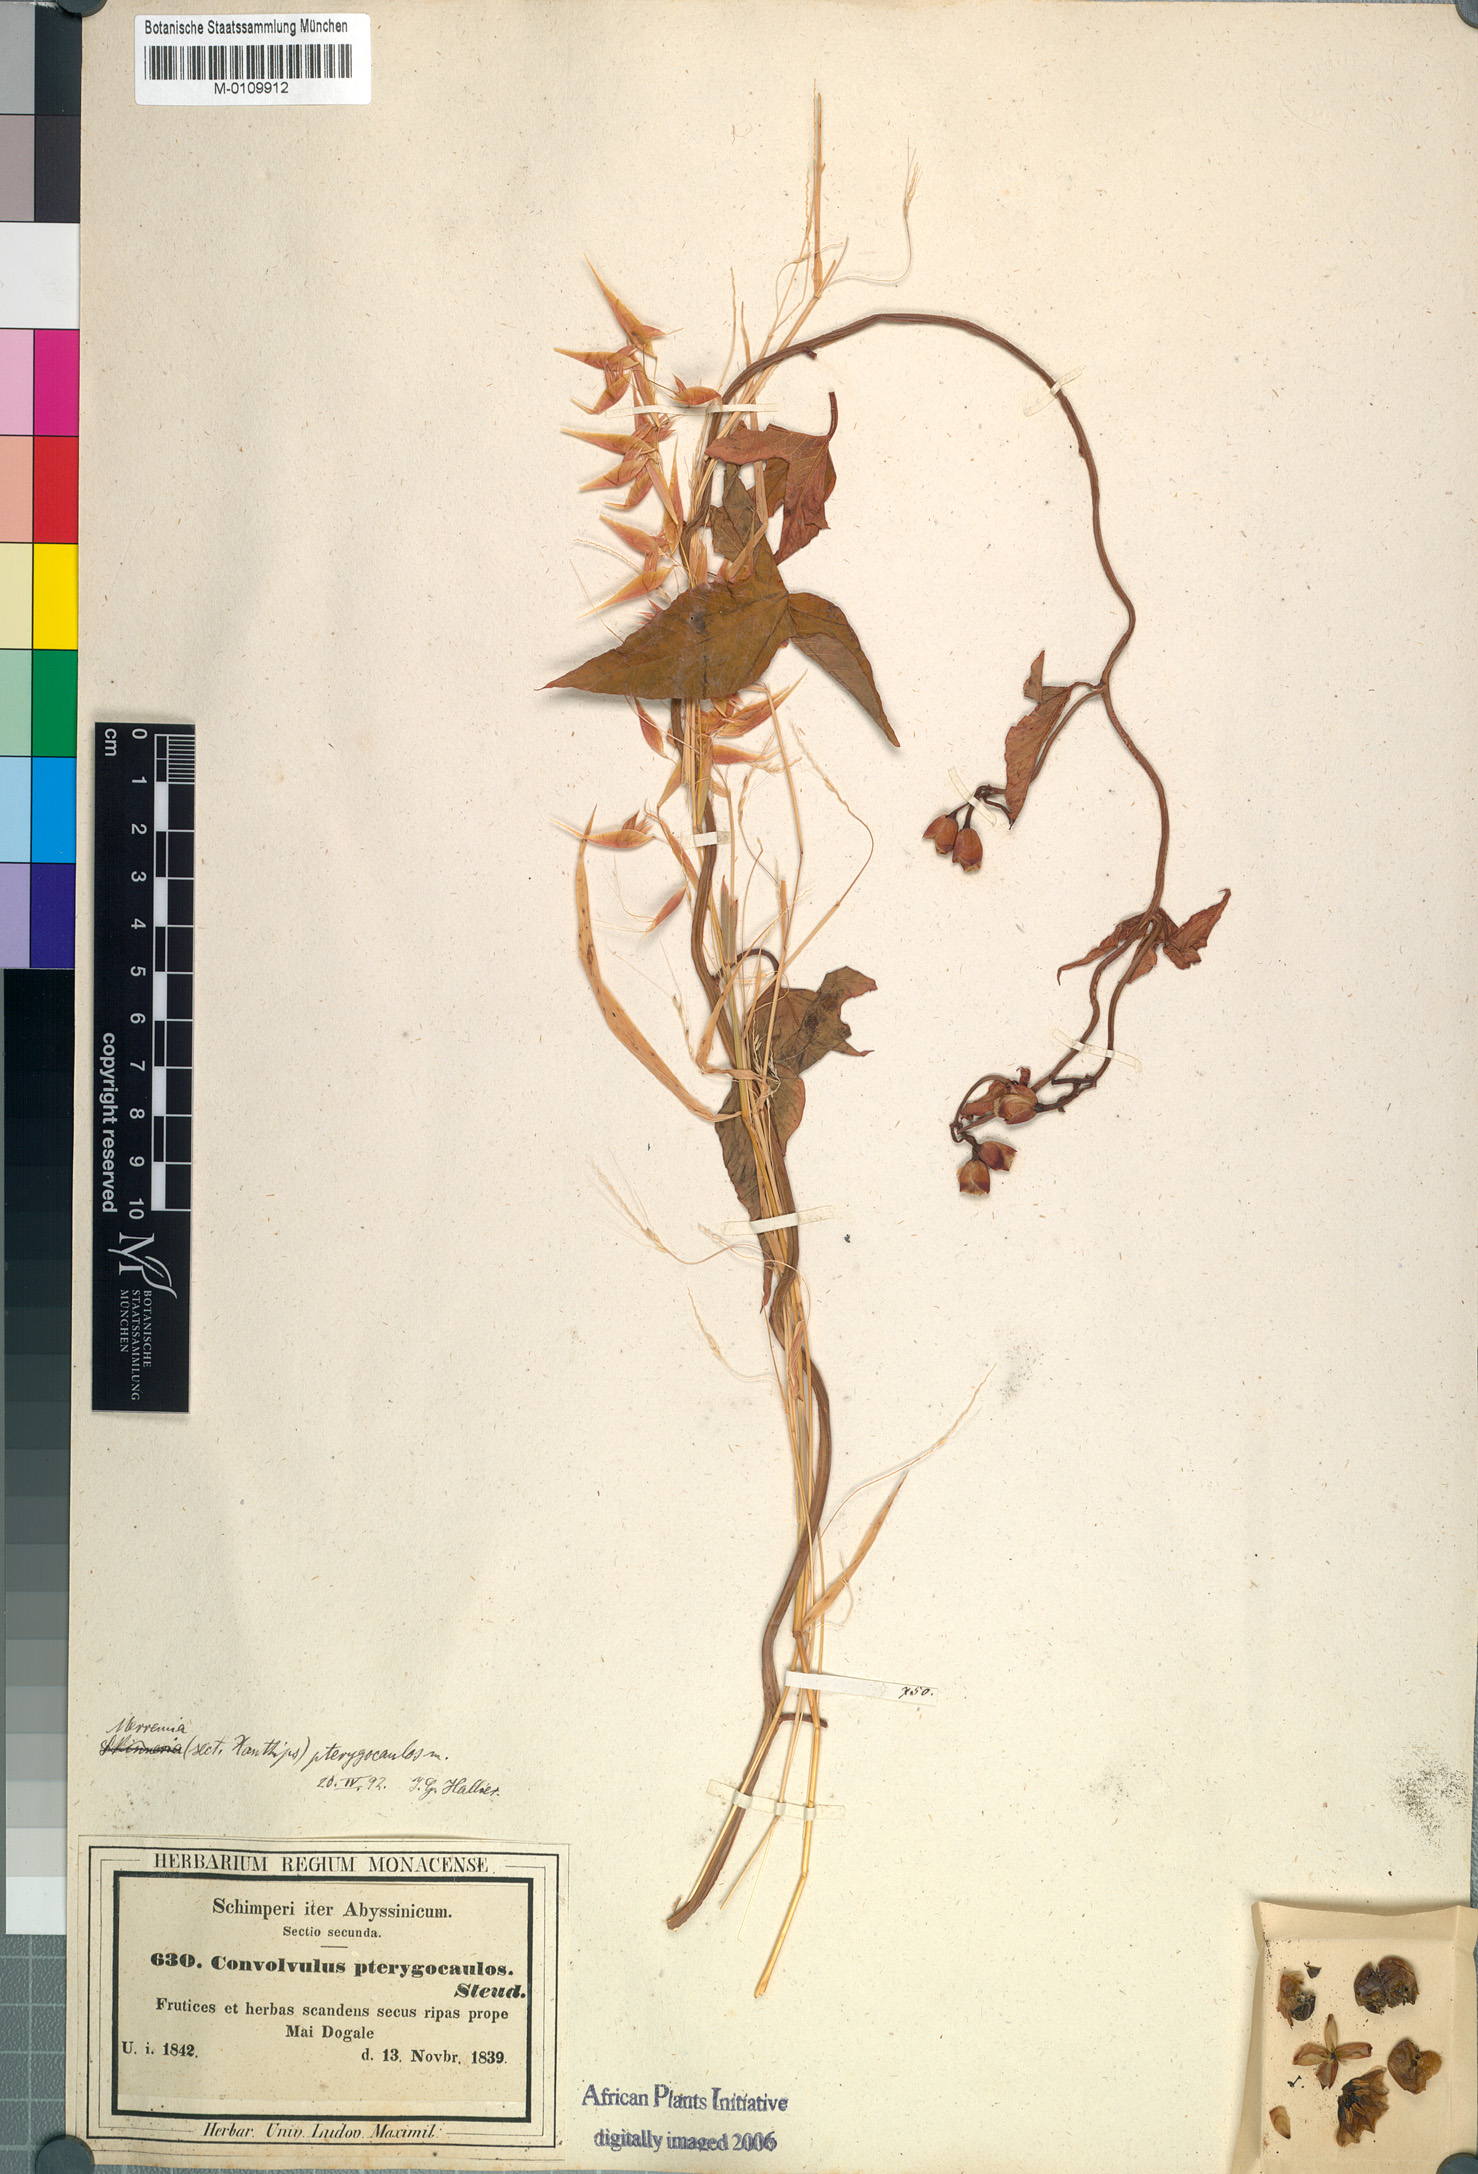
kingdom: Plantae
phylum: Tracheophyta
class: Magnoliopsida
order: Solanales
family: Convolvulaceae
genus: Merremia
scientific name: Merremia pterygocaulos
